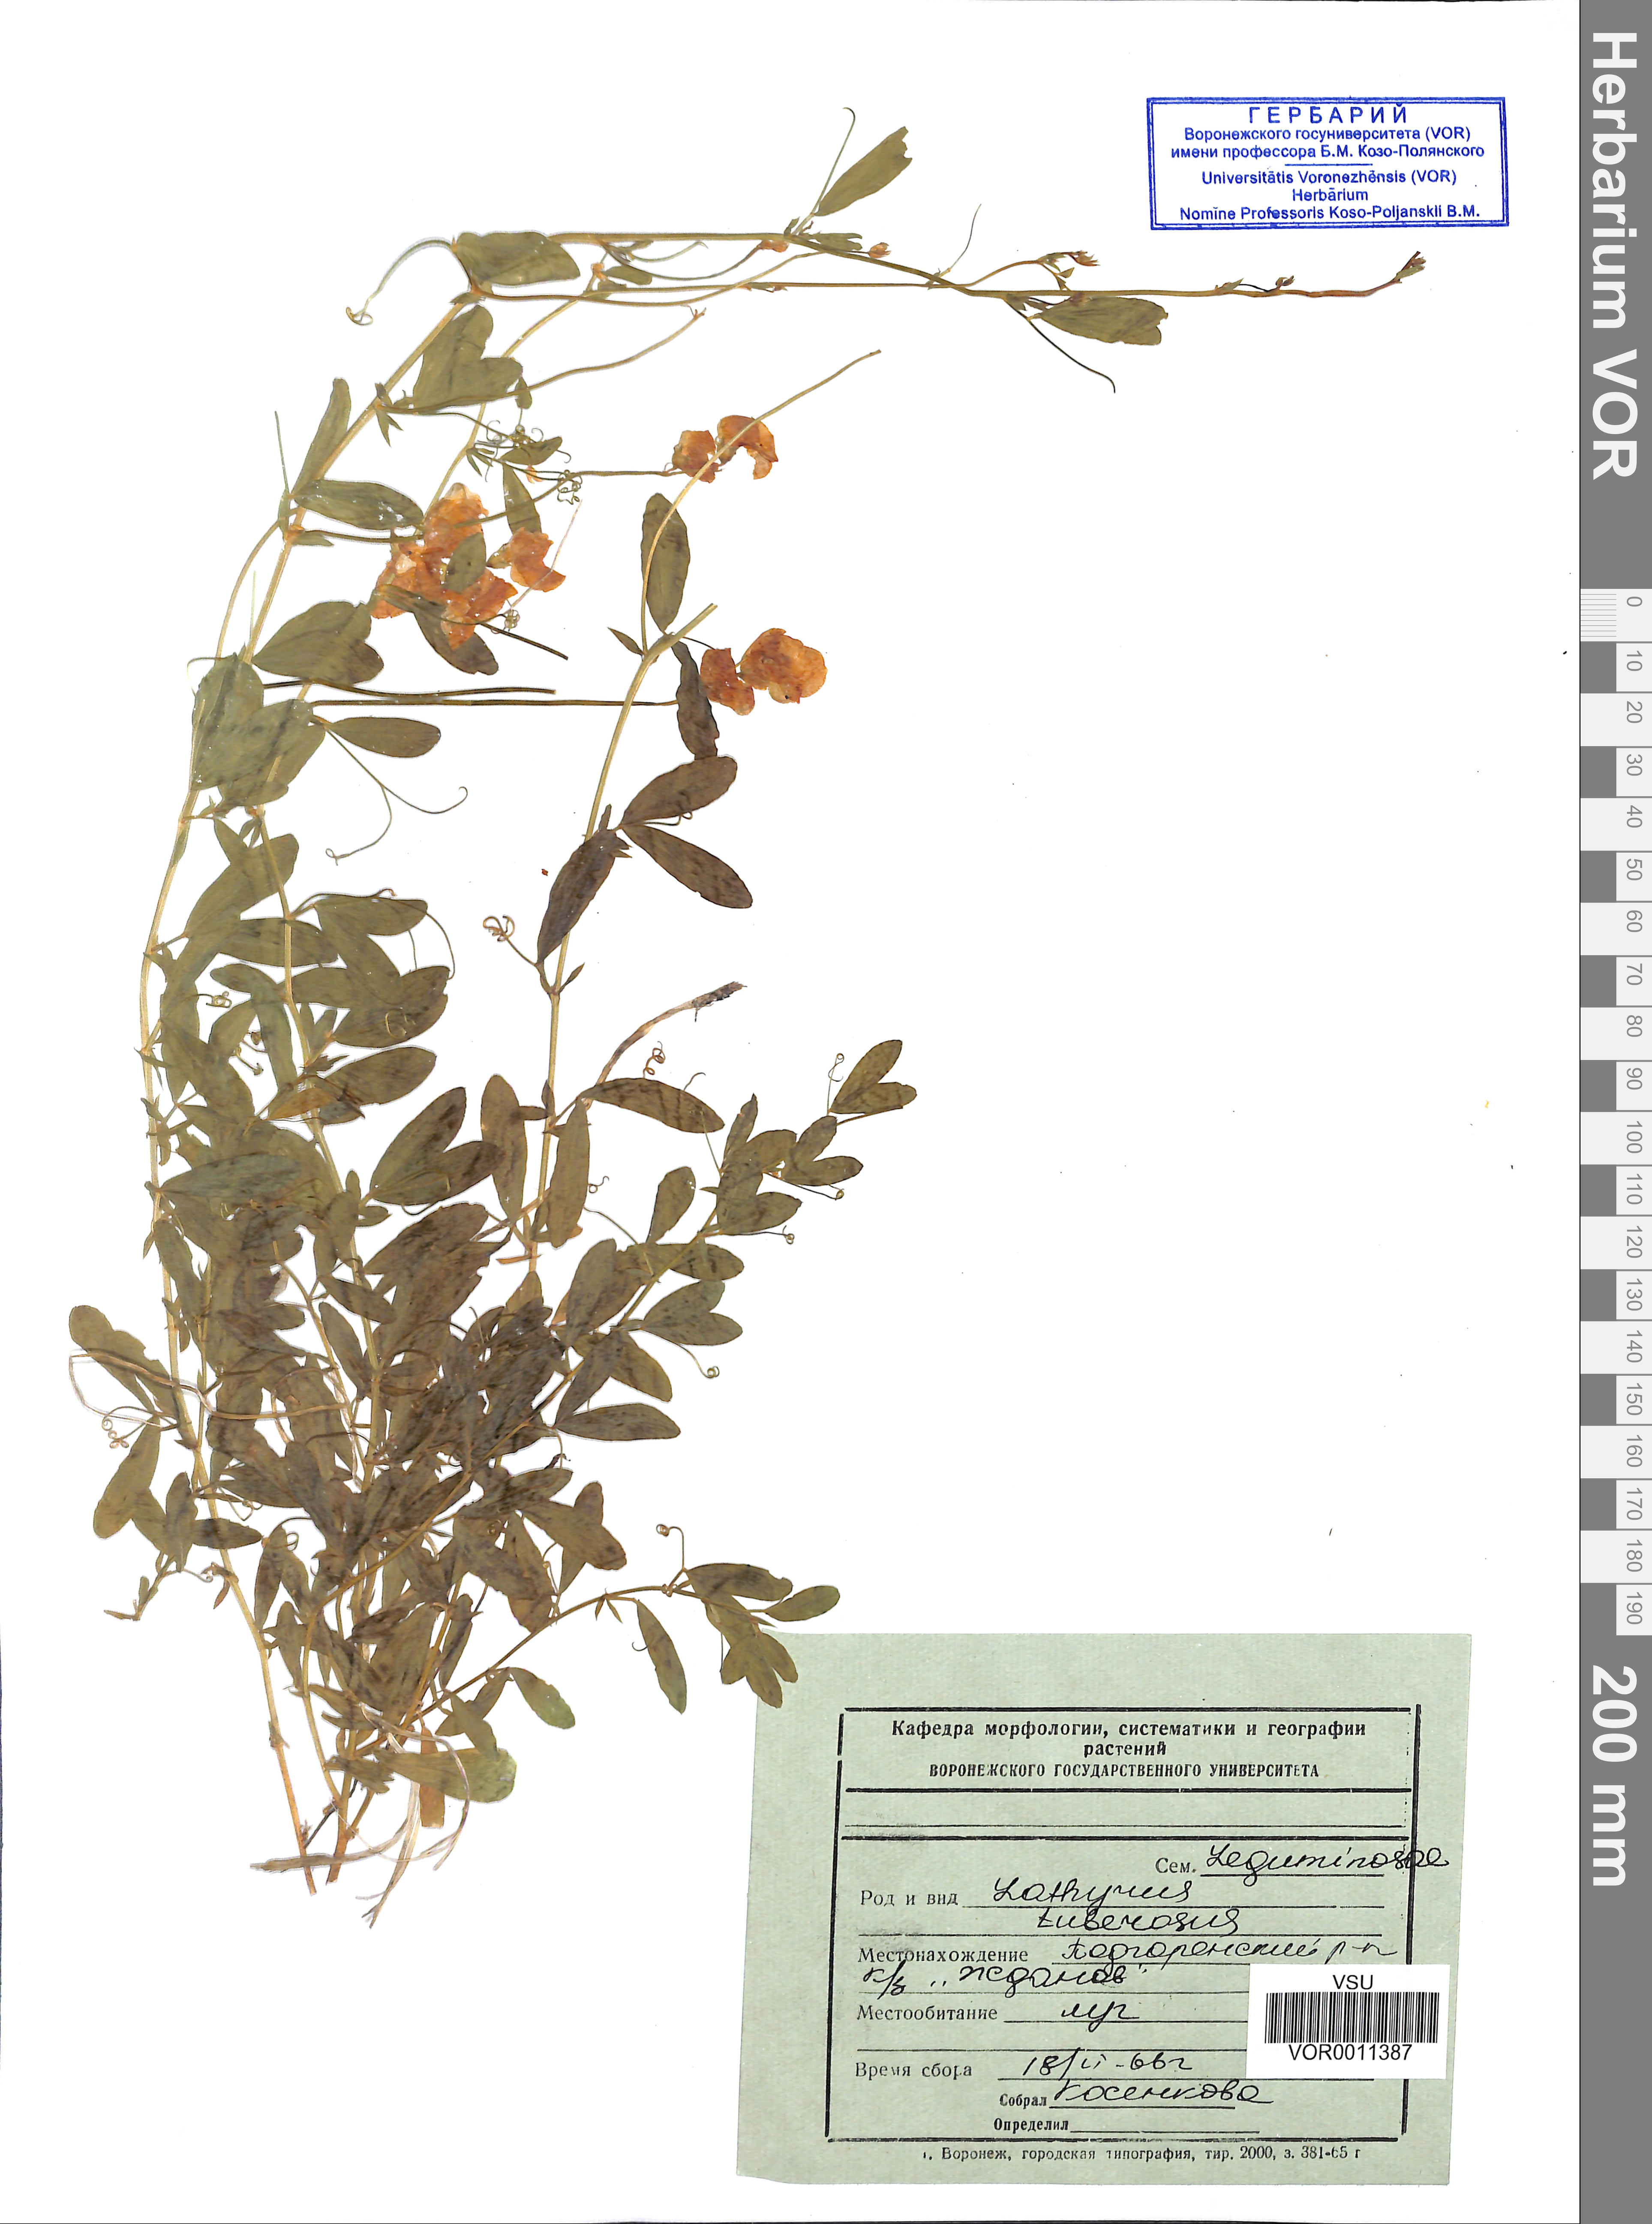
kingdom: Plantae
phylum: Tracheophyta
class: Magnoliopsida
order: Fabales
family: Fabaceae
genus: Lathyrus
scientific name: Lathyrus tuberosus
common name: Tuberous pea
